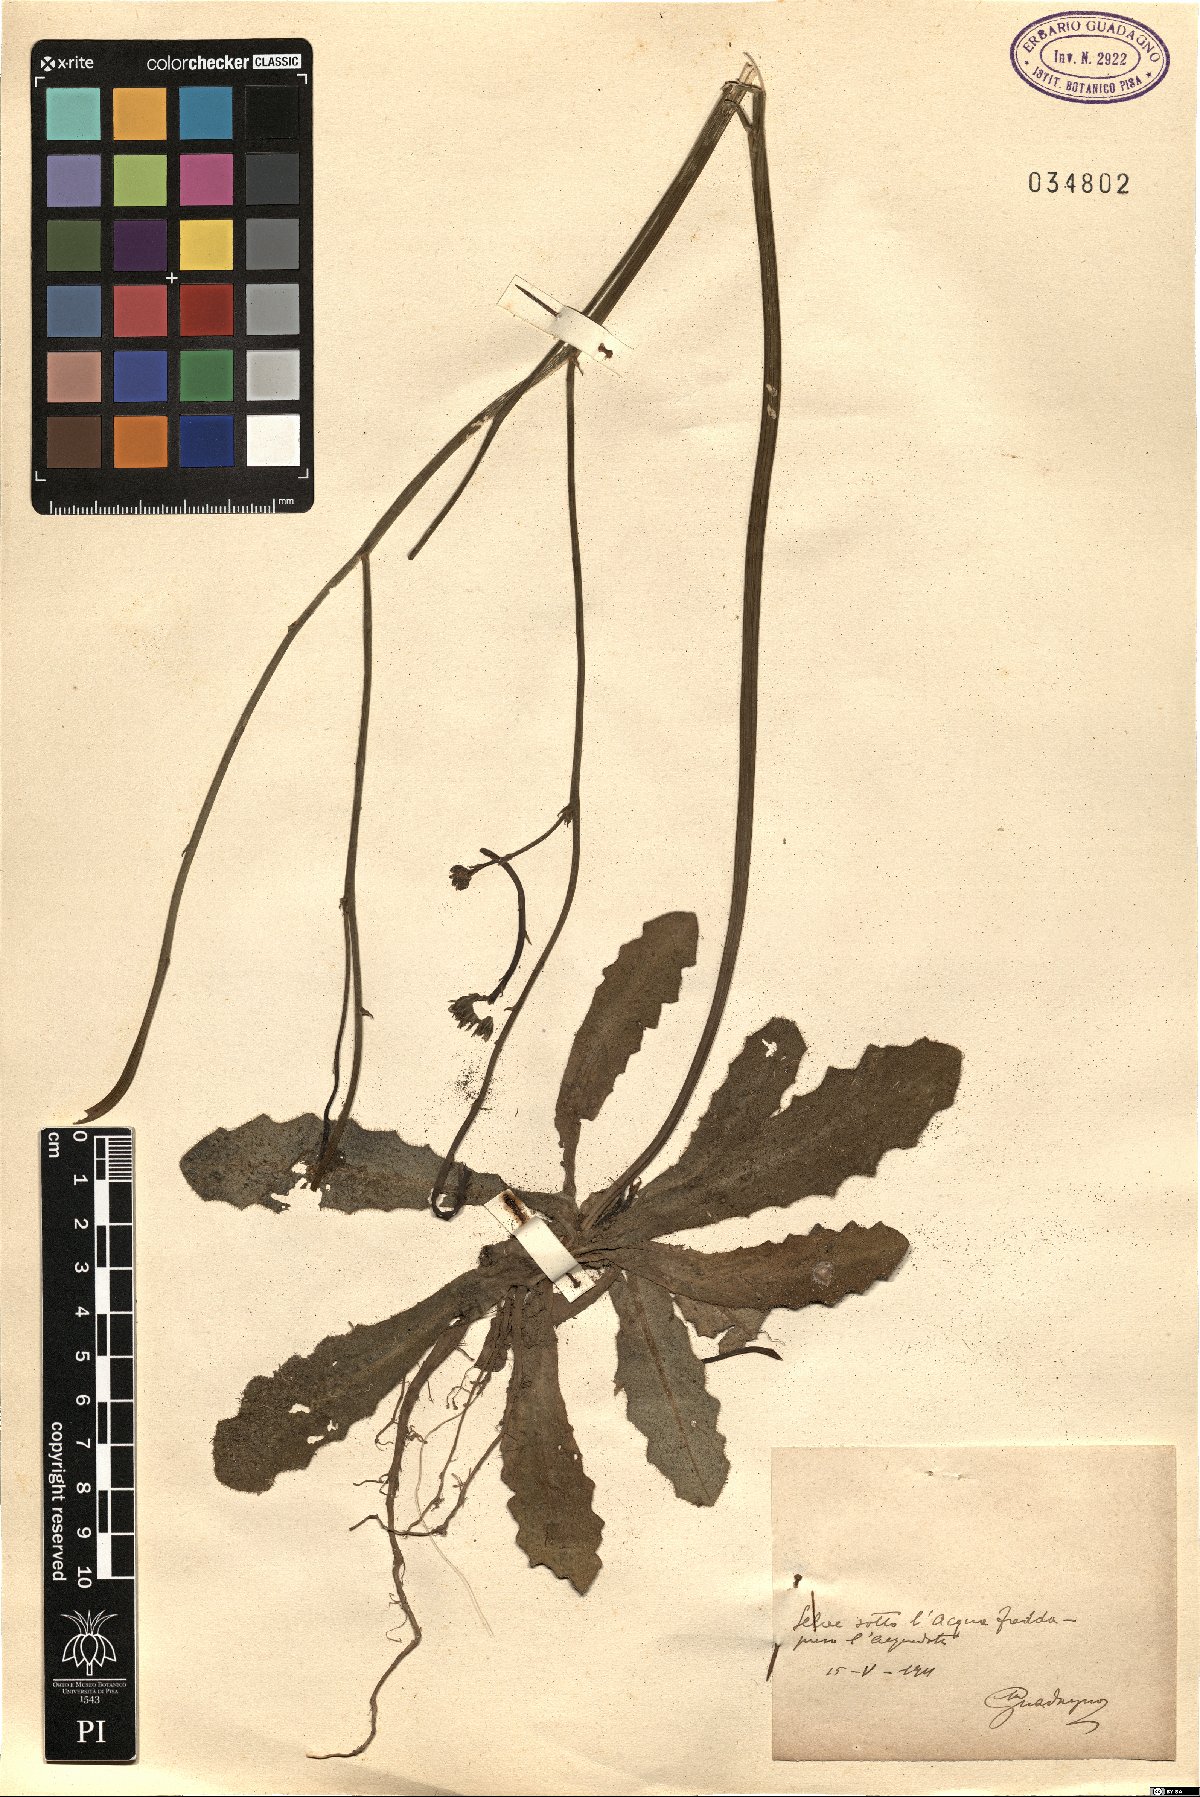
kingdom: Plantae
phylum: Tracheophyta
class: Magnoliopsida
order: Asterales
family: Asteraceae
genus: Hypochaeris
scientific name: Hypochaeris
